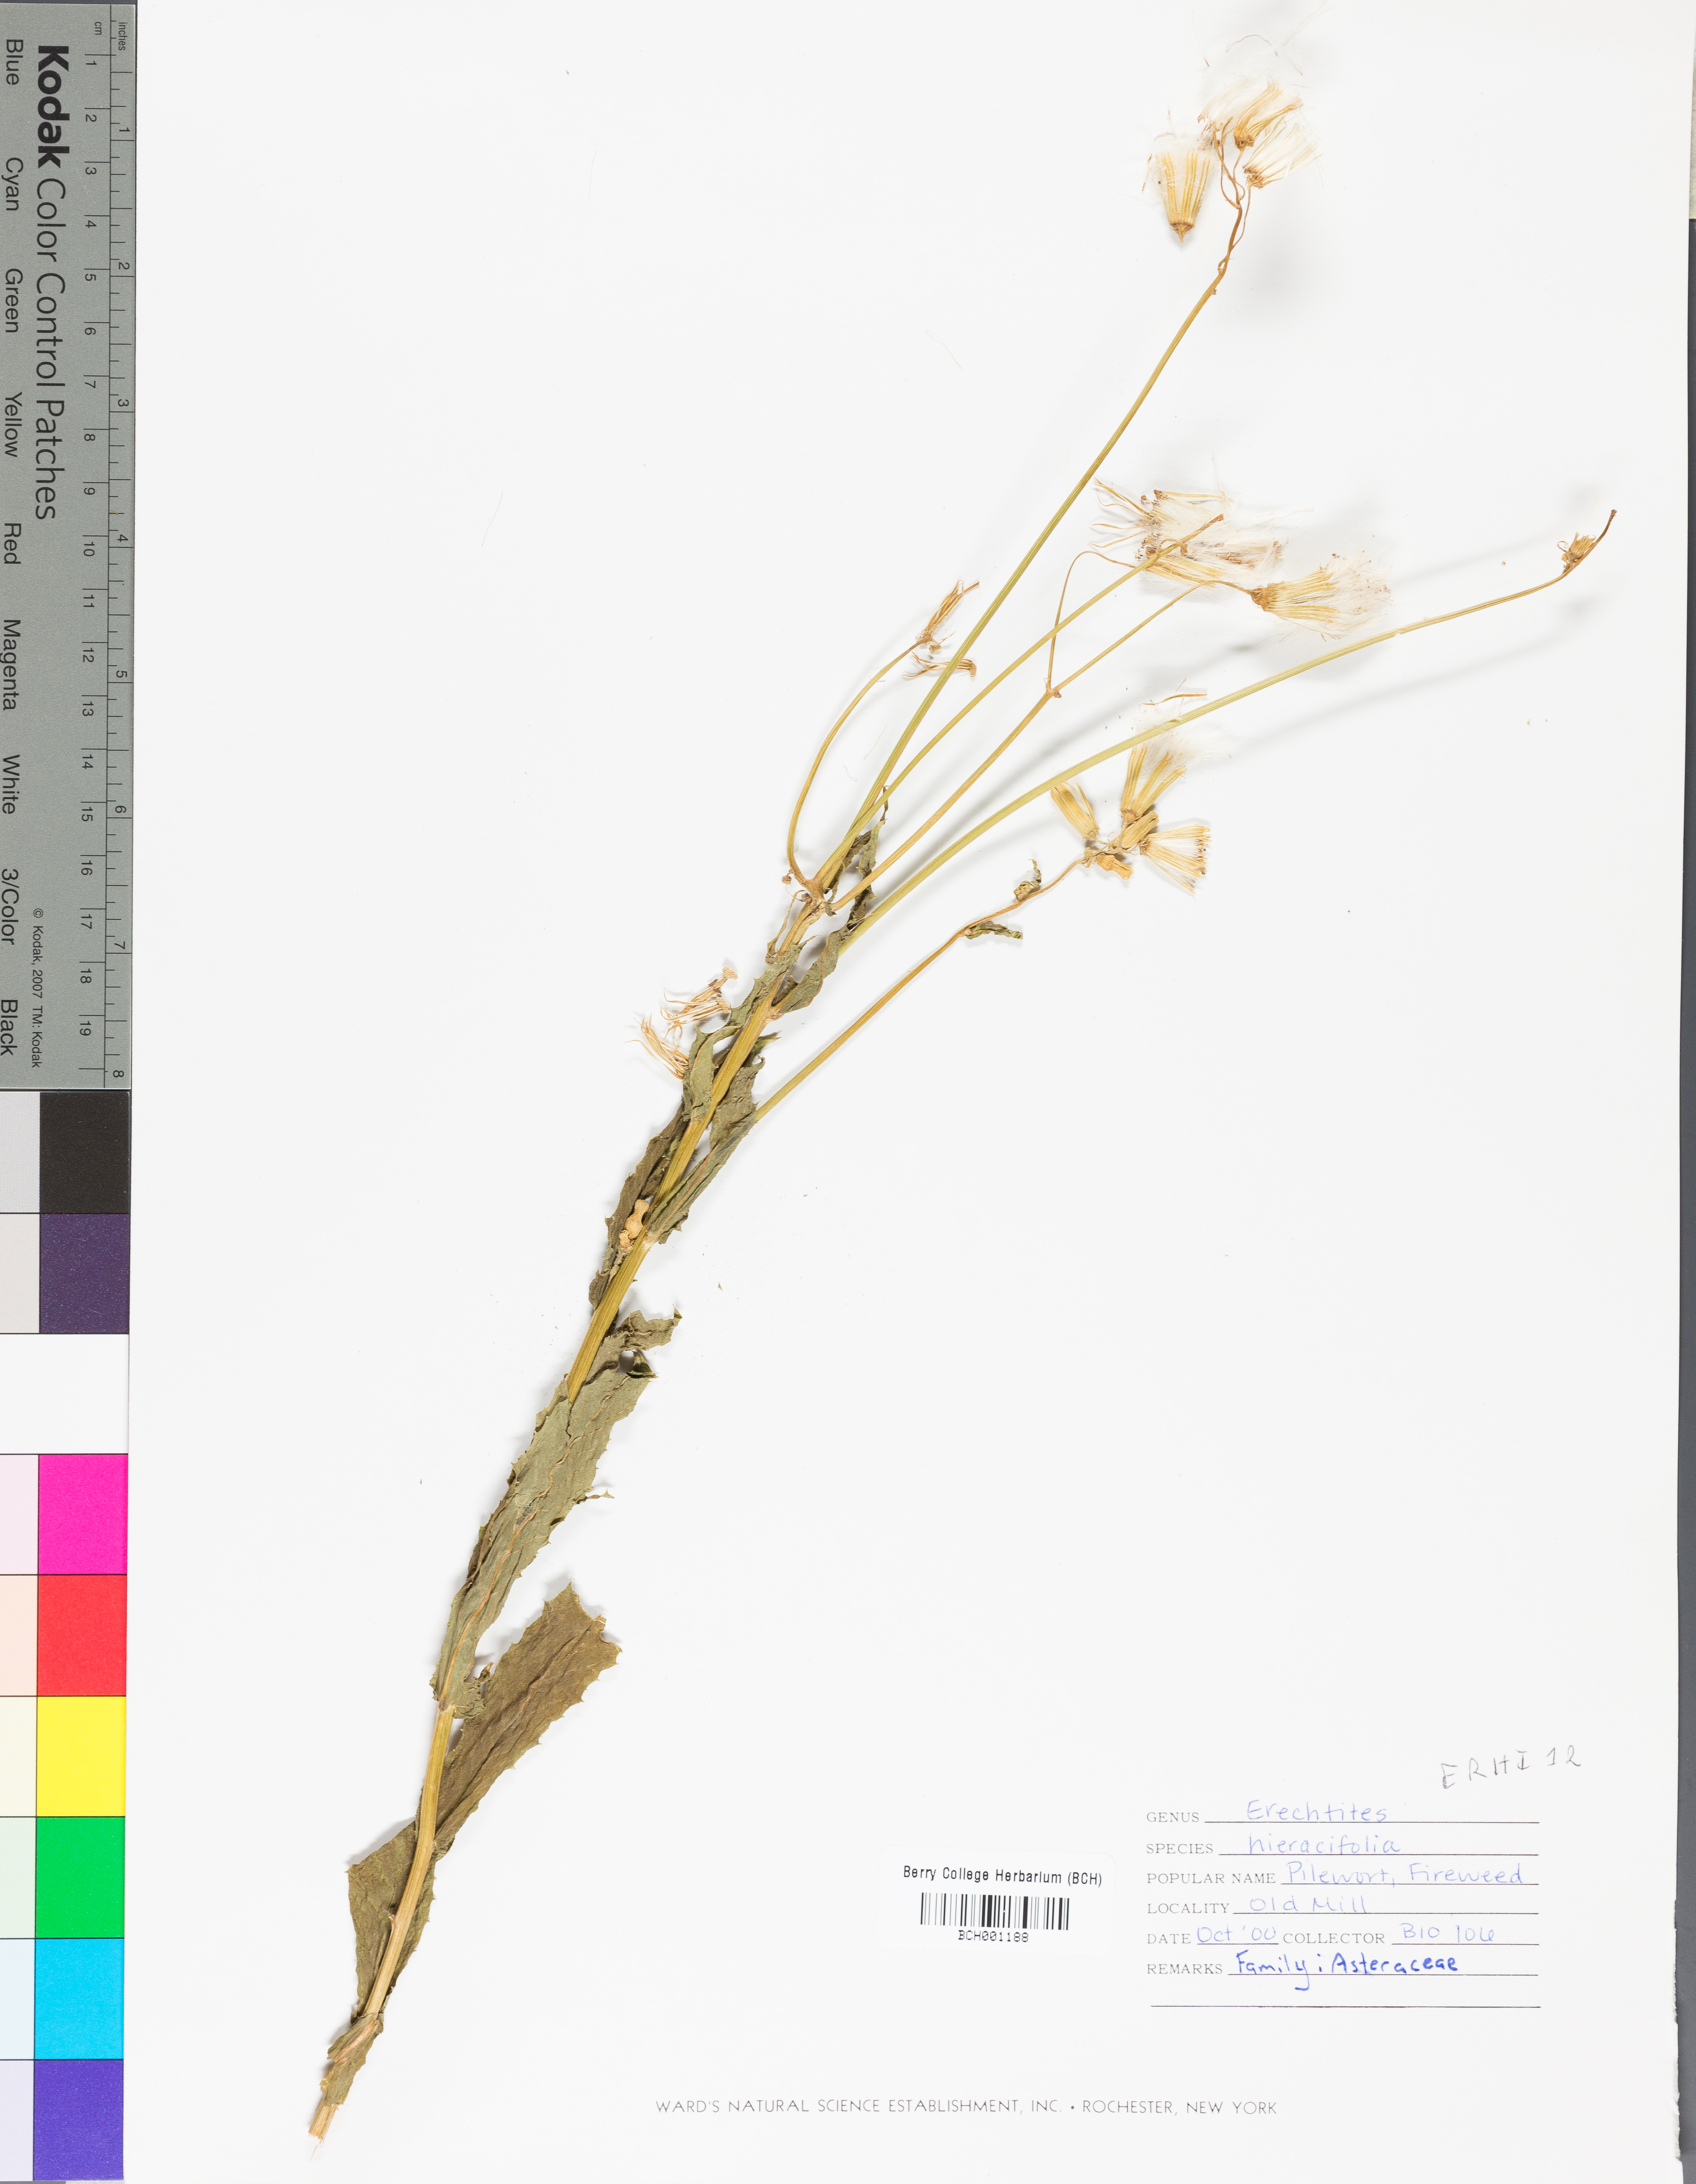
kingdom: Plantae
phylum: Tracheophyta
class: Magnoliopsida
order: Asterales
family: Asteraceae
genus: Erechtites
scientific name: Erechtites hieraciifolius
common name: American burnweed
